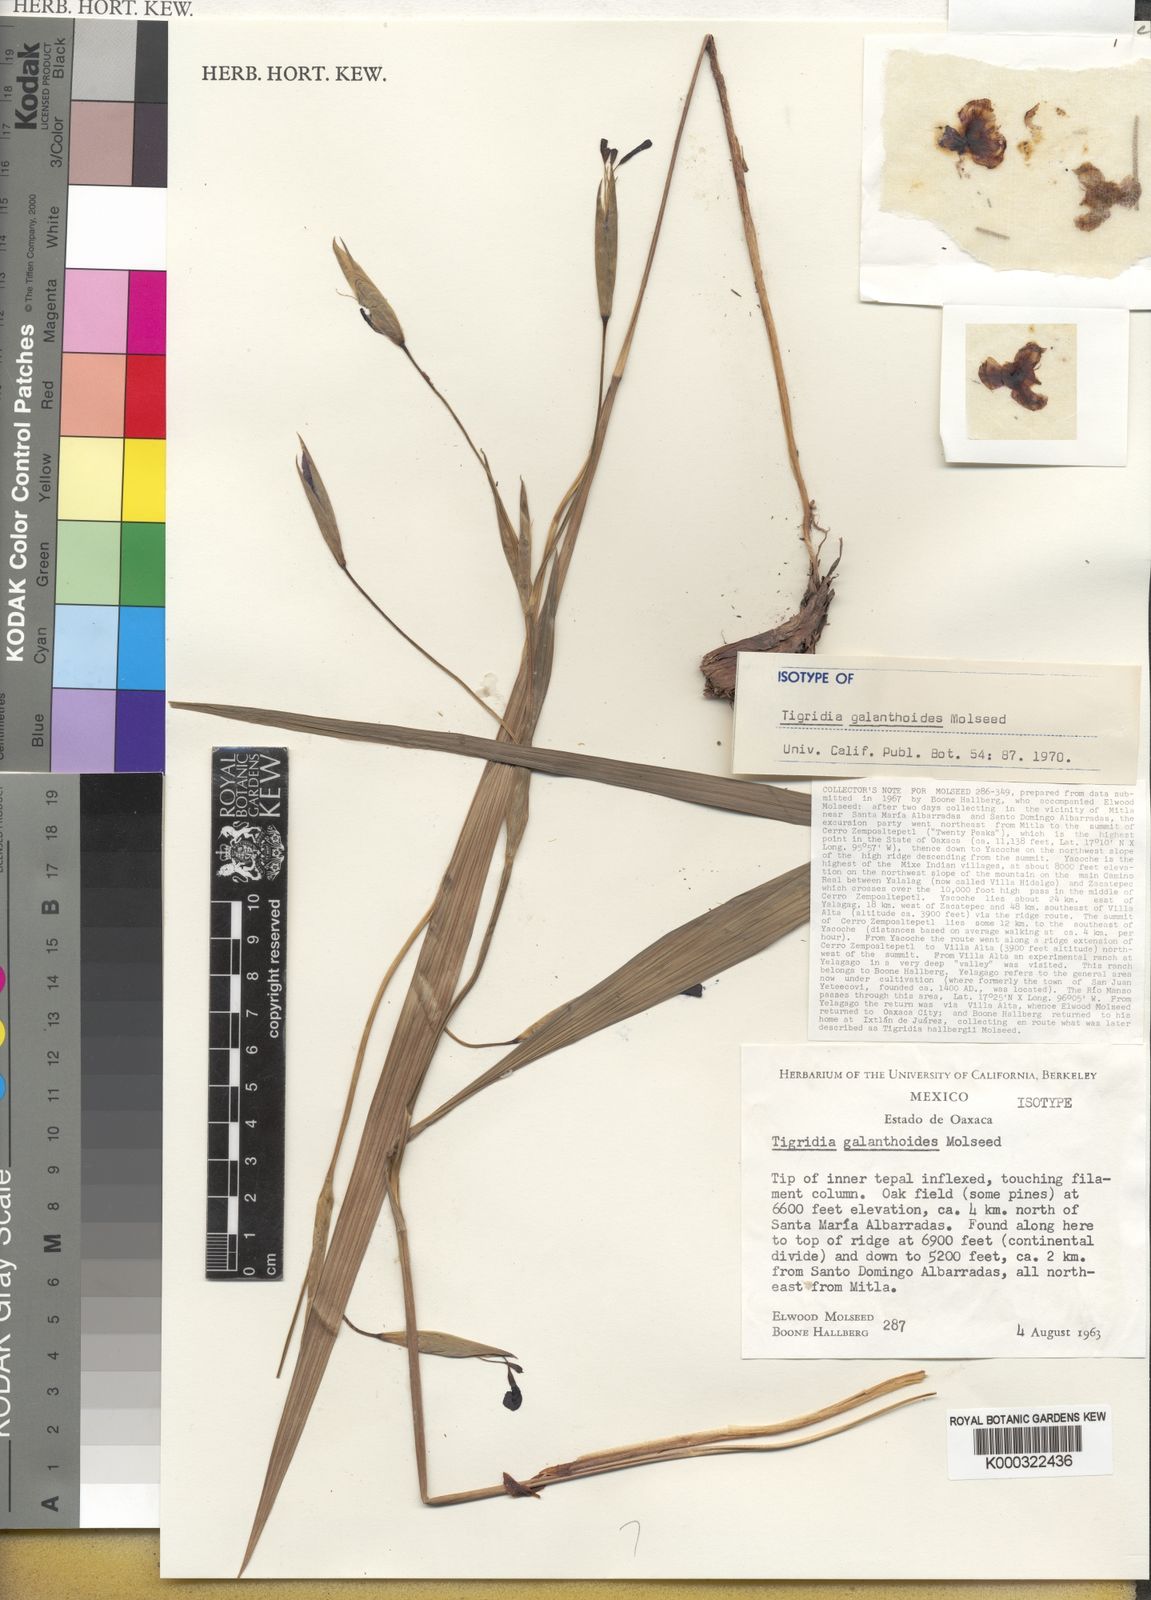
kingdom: Plantae
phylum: Tracheophyta
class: Liliopsida
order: Asparagales
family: Iridaceae
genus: Tigridia
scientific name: Tigridia galanthoides
